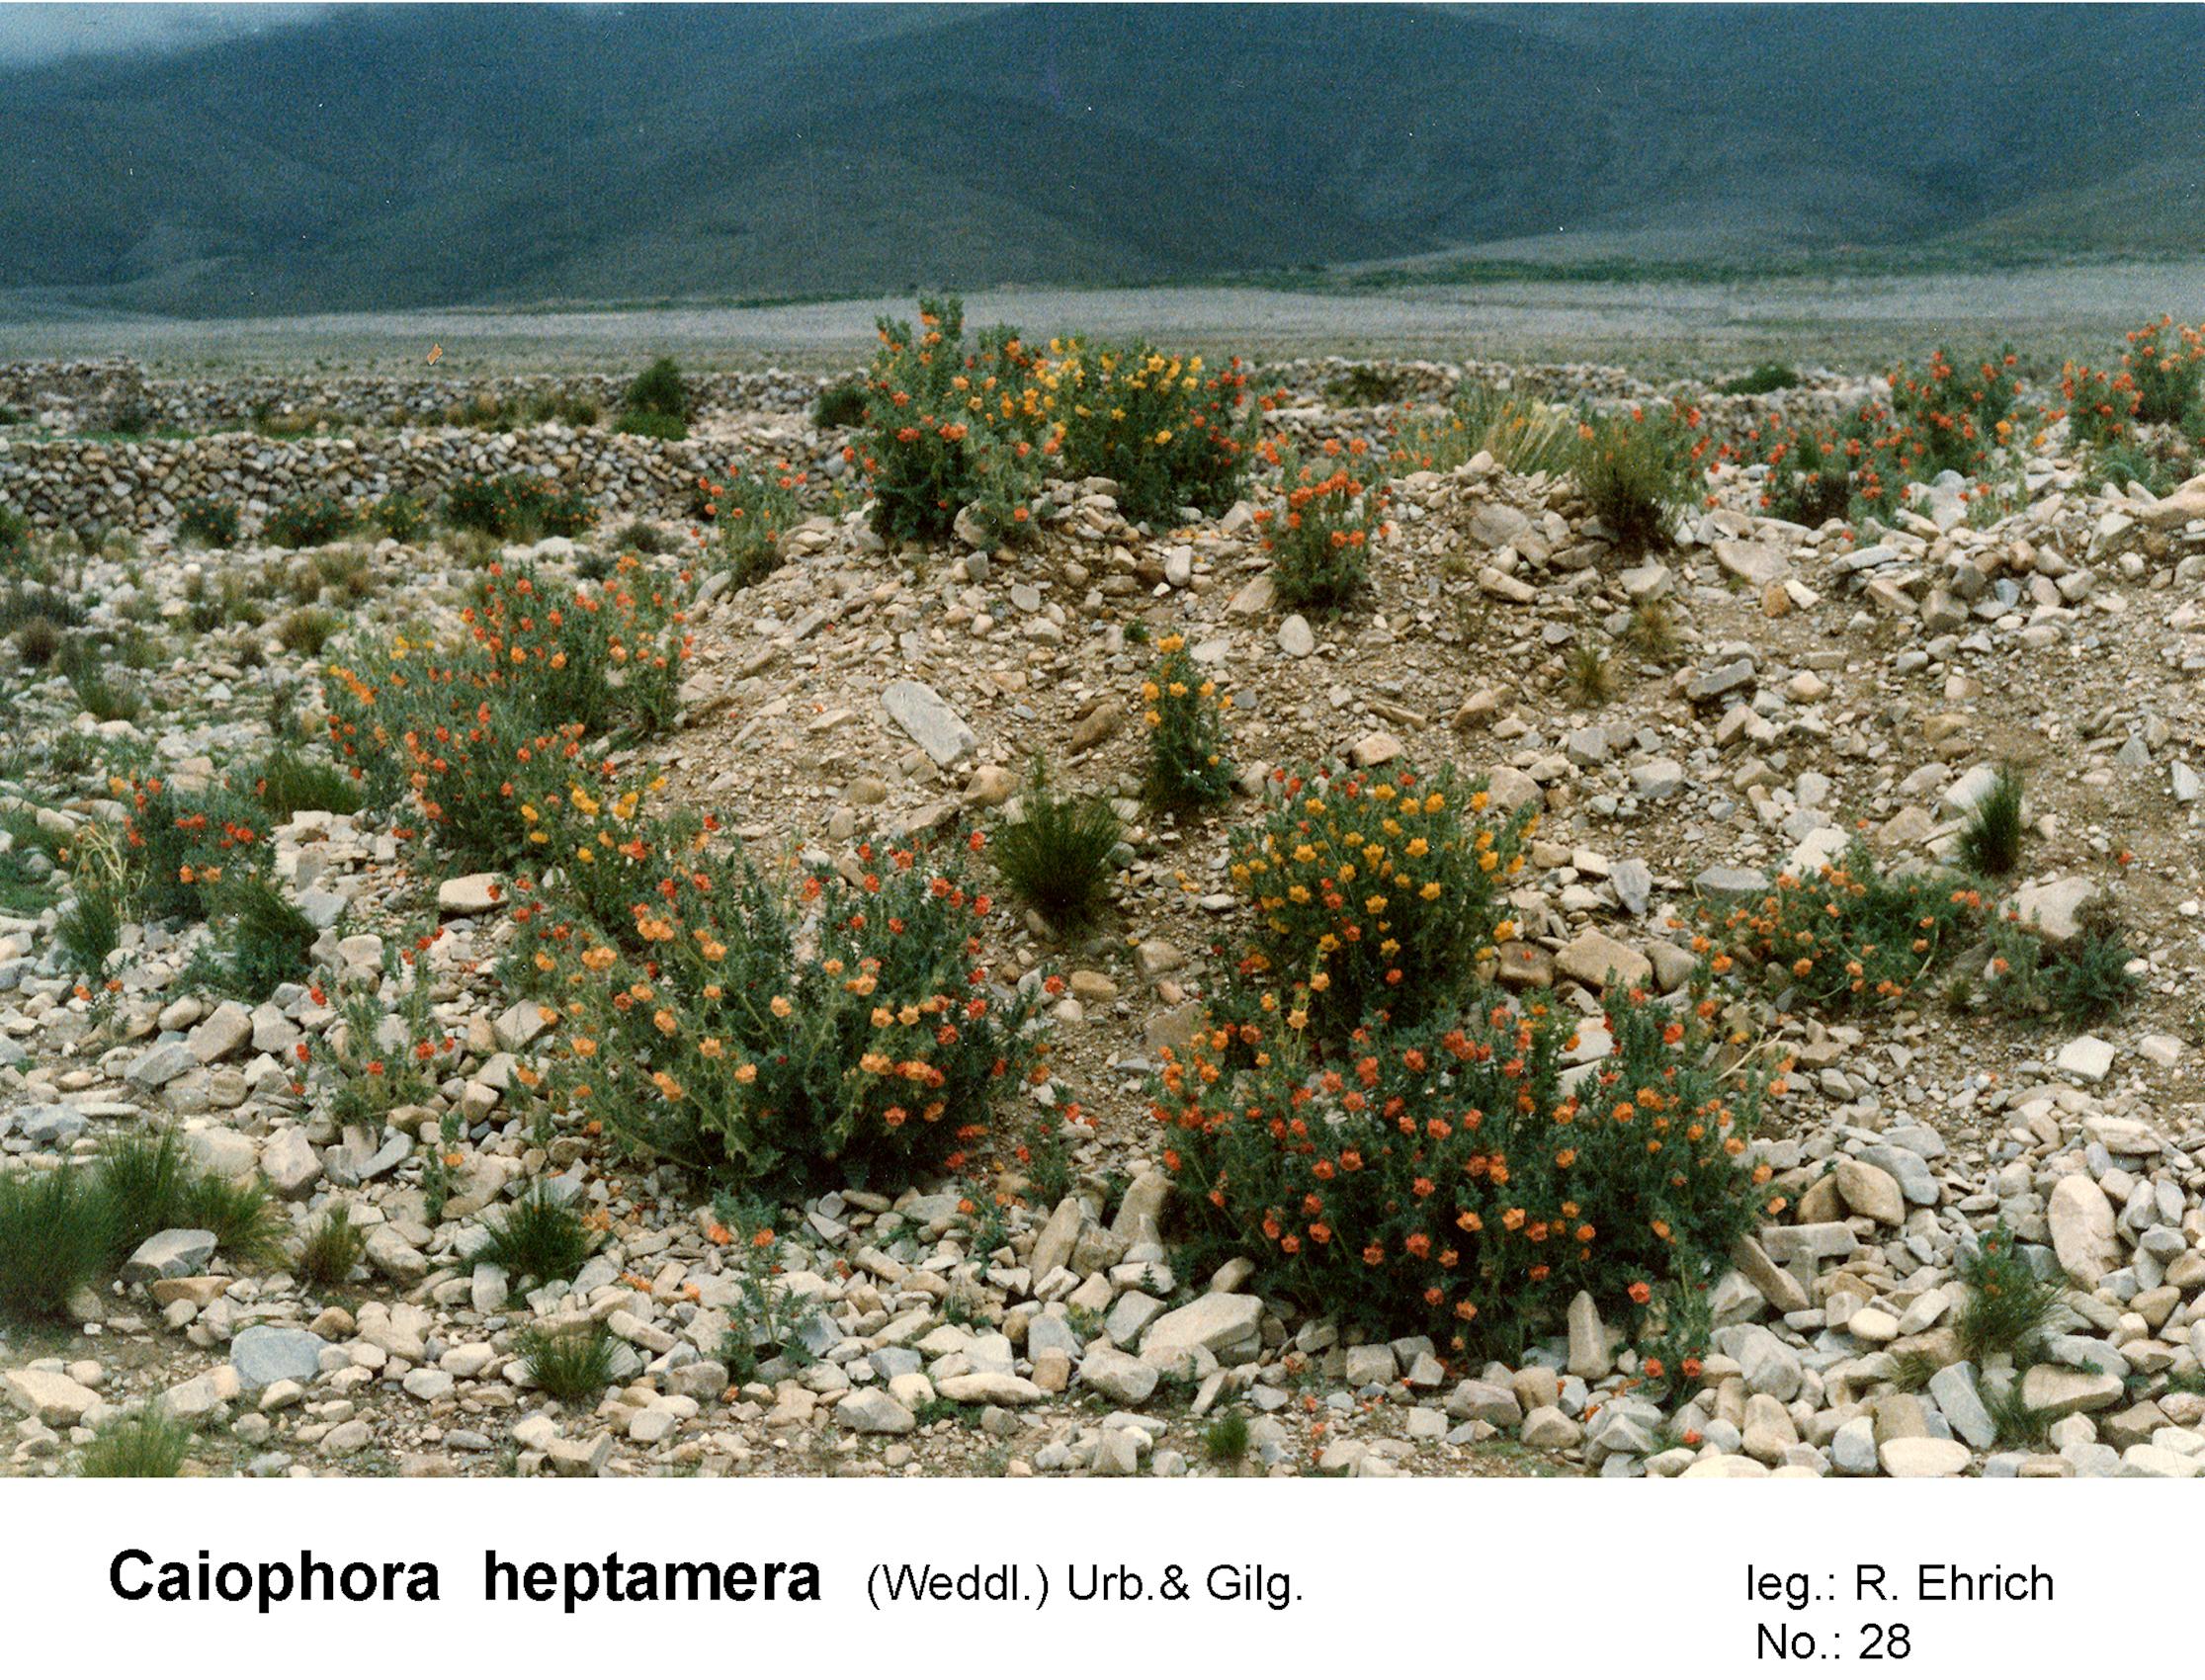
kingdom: Plantae
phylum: Tracheophyta
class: Magnoliopsida
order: Cornales
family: Loasaceae
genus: Caiophora
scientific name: Caiophora chuquitensis
